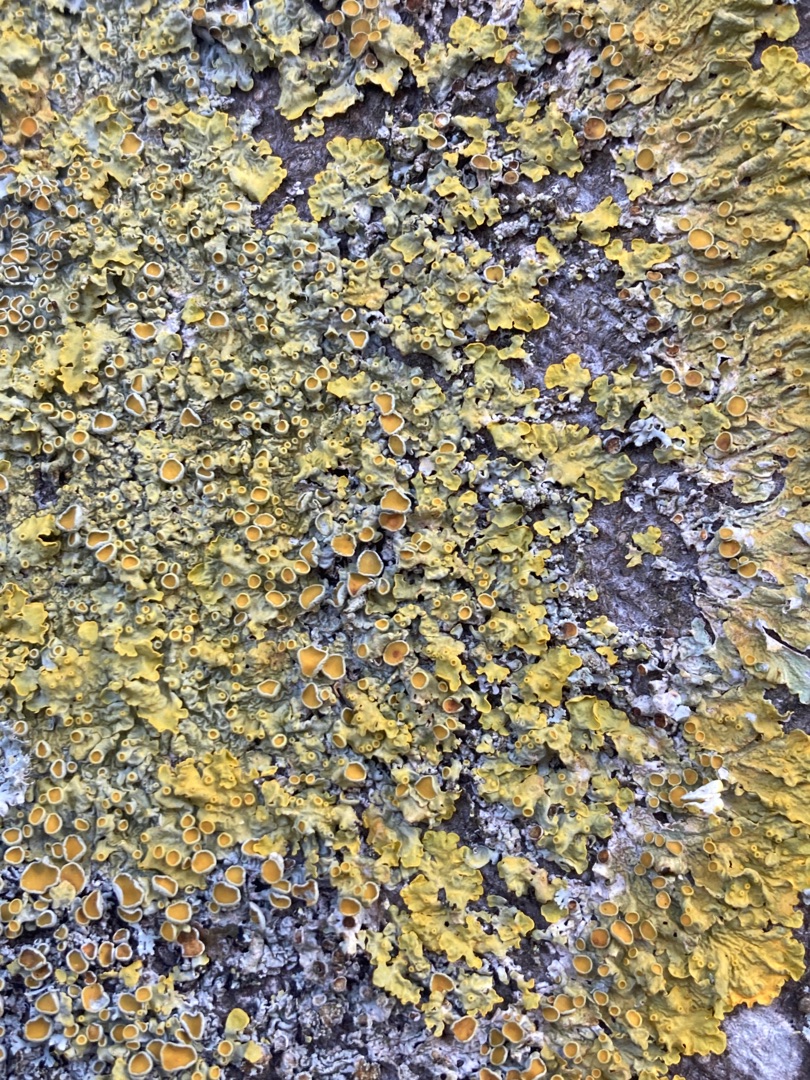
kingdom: Fungi
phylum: Ascomycota
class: Lecanoromycetes
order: Teloschistales
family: Teloschistaceae
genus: Xanthoria
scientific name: Xanthoria parietina
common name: Almindelig væggelav
